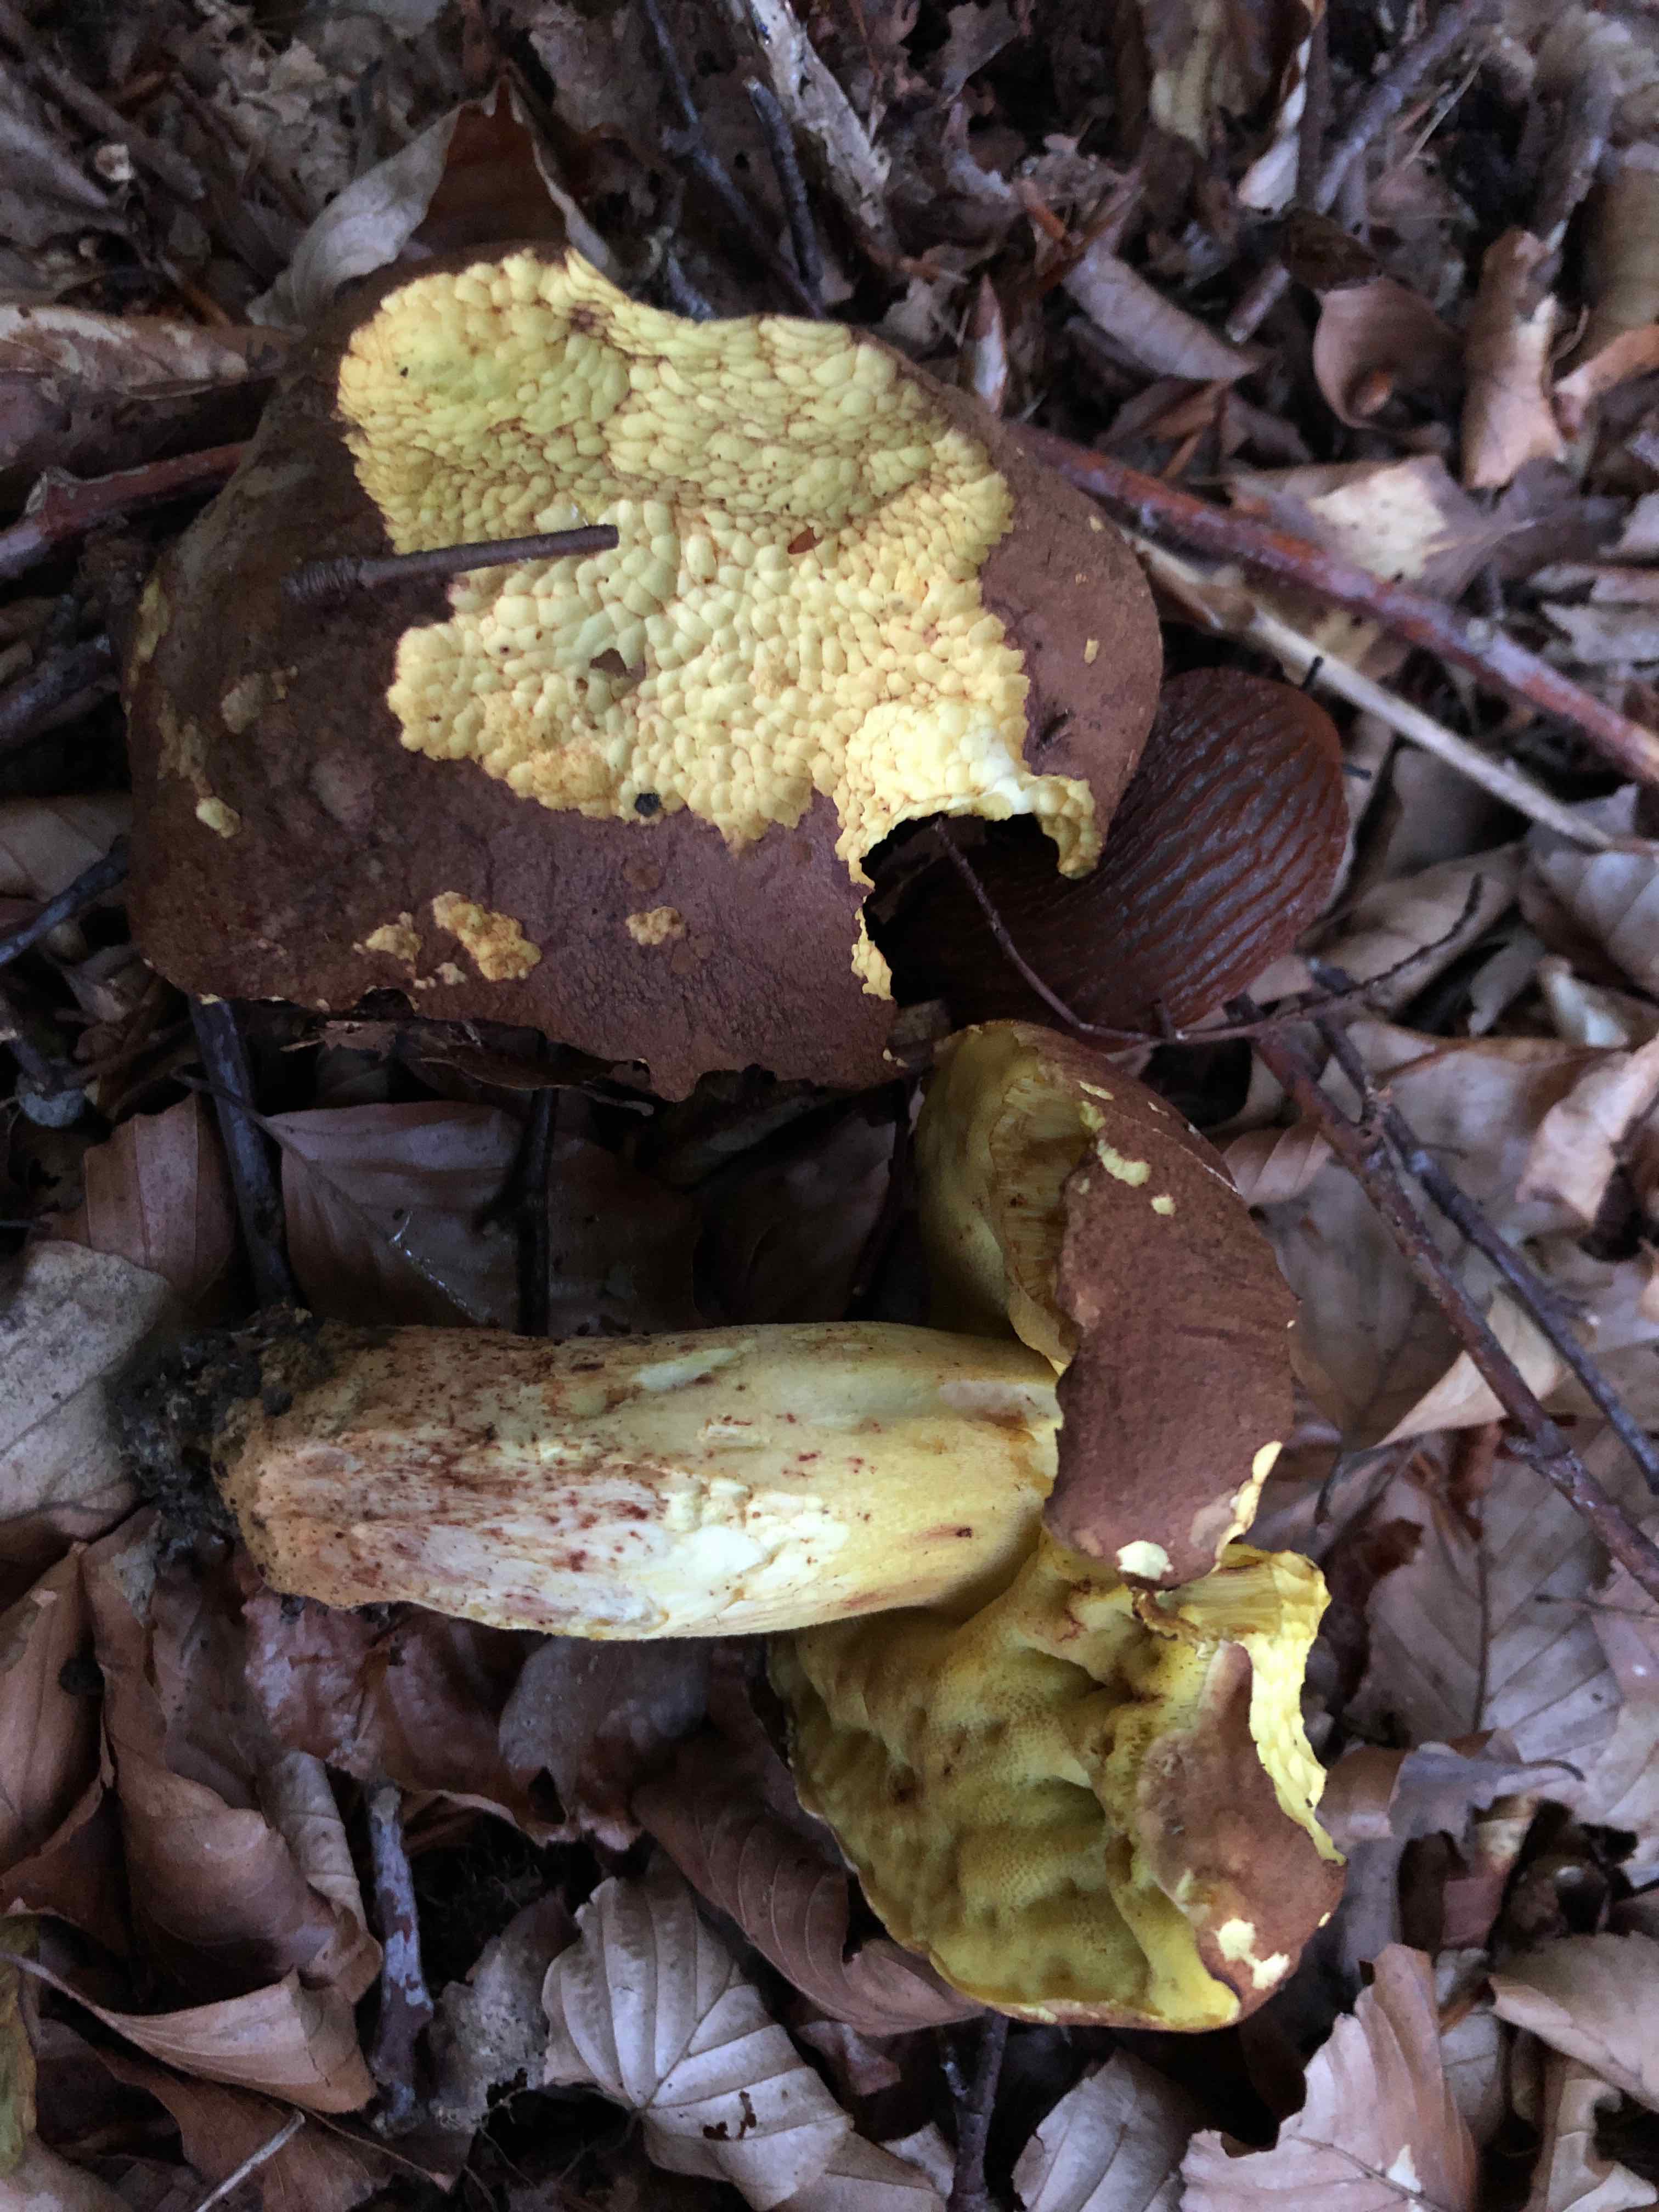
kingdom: Fungi
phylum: Basidiomycota
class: Agaricomycetes
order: Boletales
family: Boletaceae
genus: Butyriboletus
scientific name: Butyriboletus appendiculatus
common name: tenstokket rørhat
